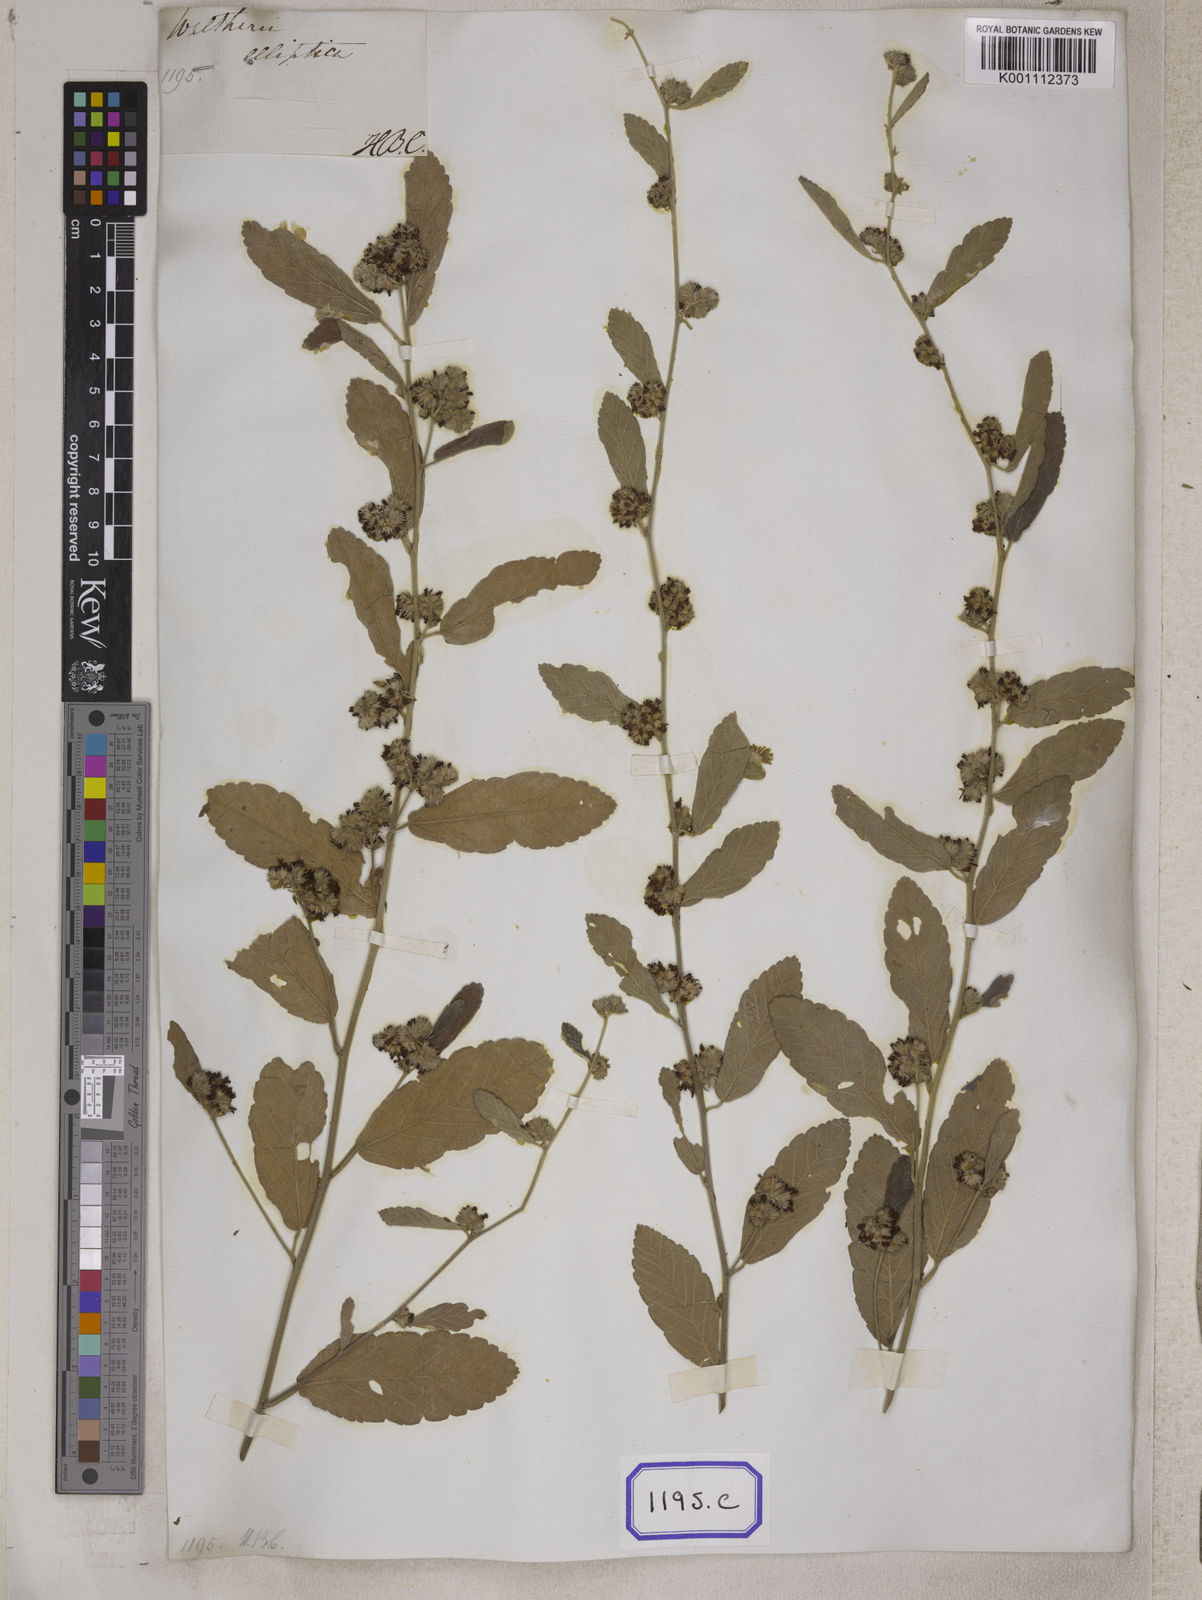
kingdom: Plantae
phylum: Tracheophyta
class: Magnoliopsida
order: Malvales
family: Malvaceae
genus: Waltheria
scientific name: Waltheria indica
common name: Leather-coat
